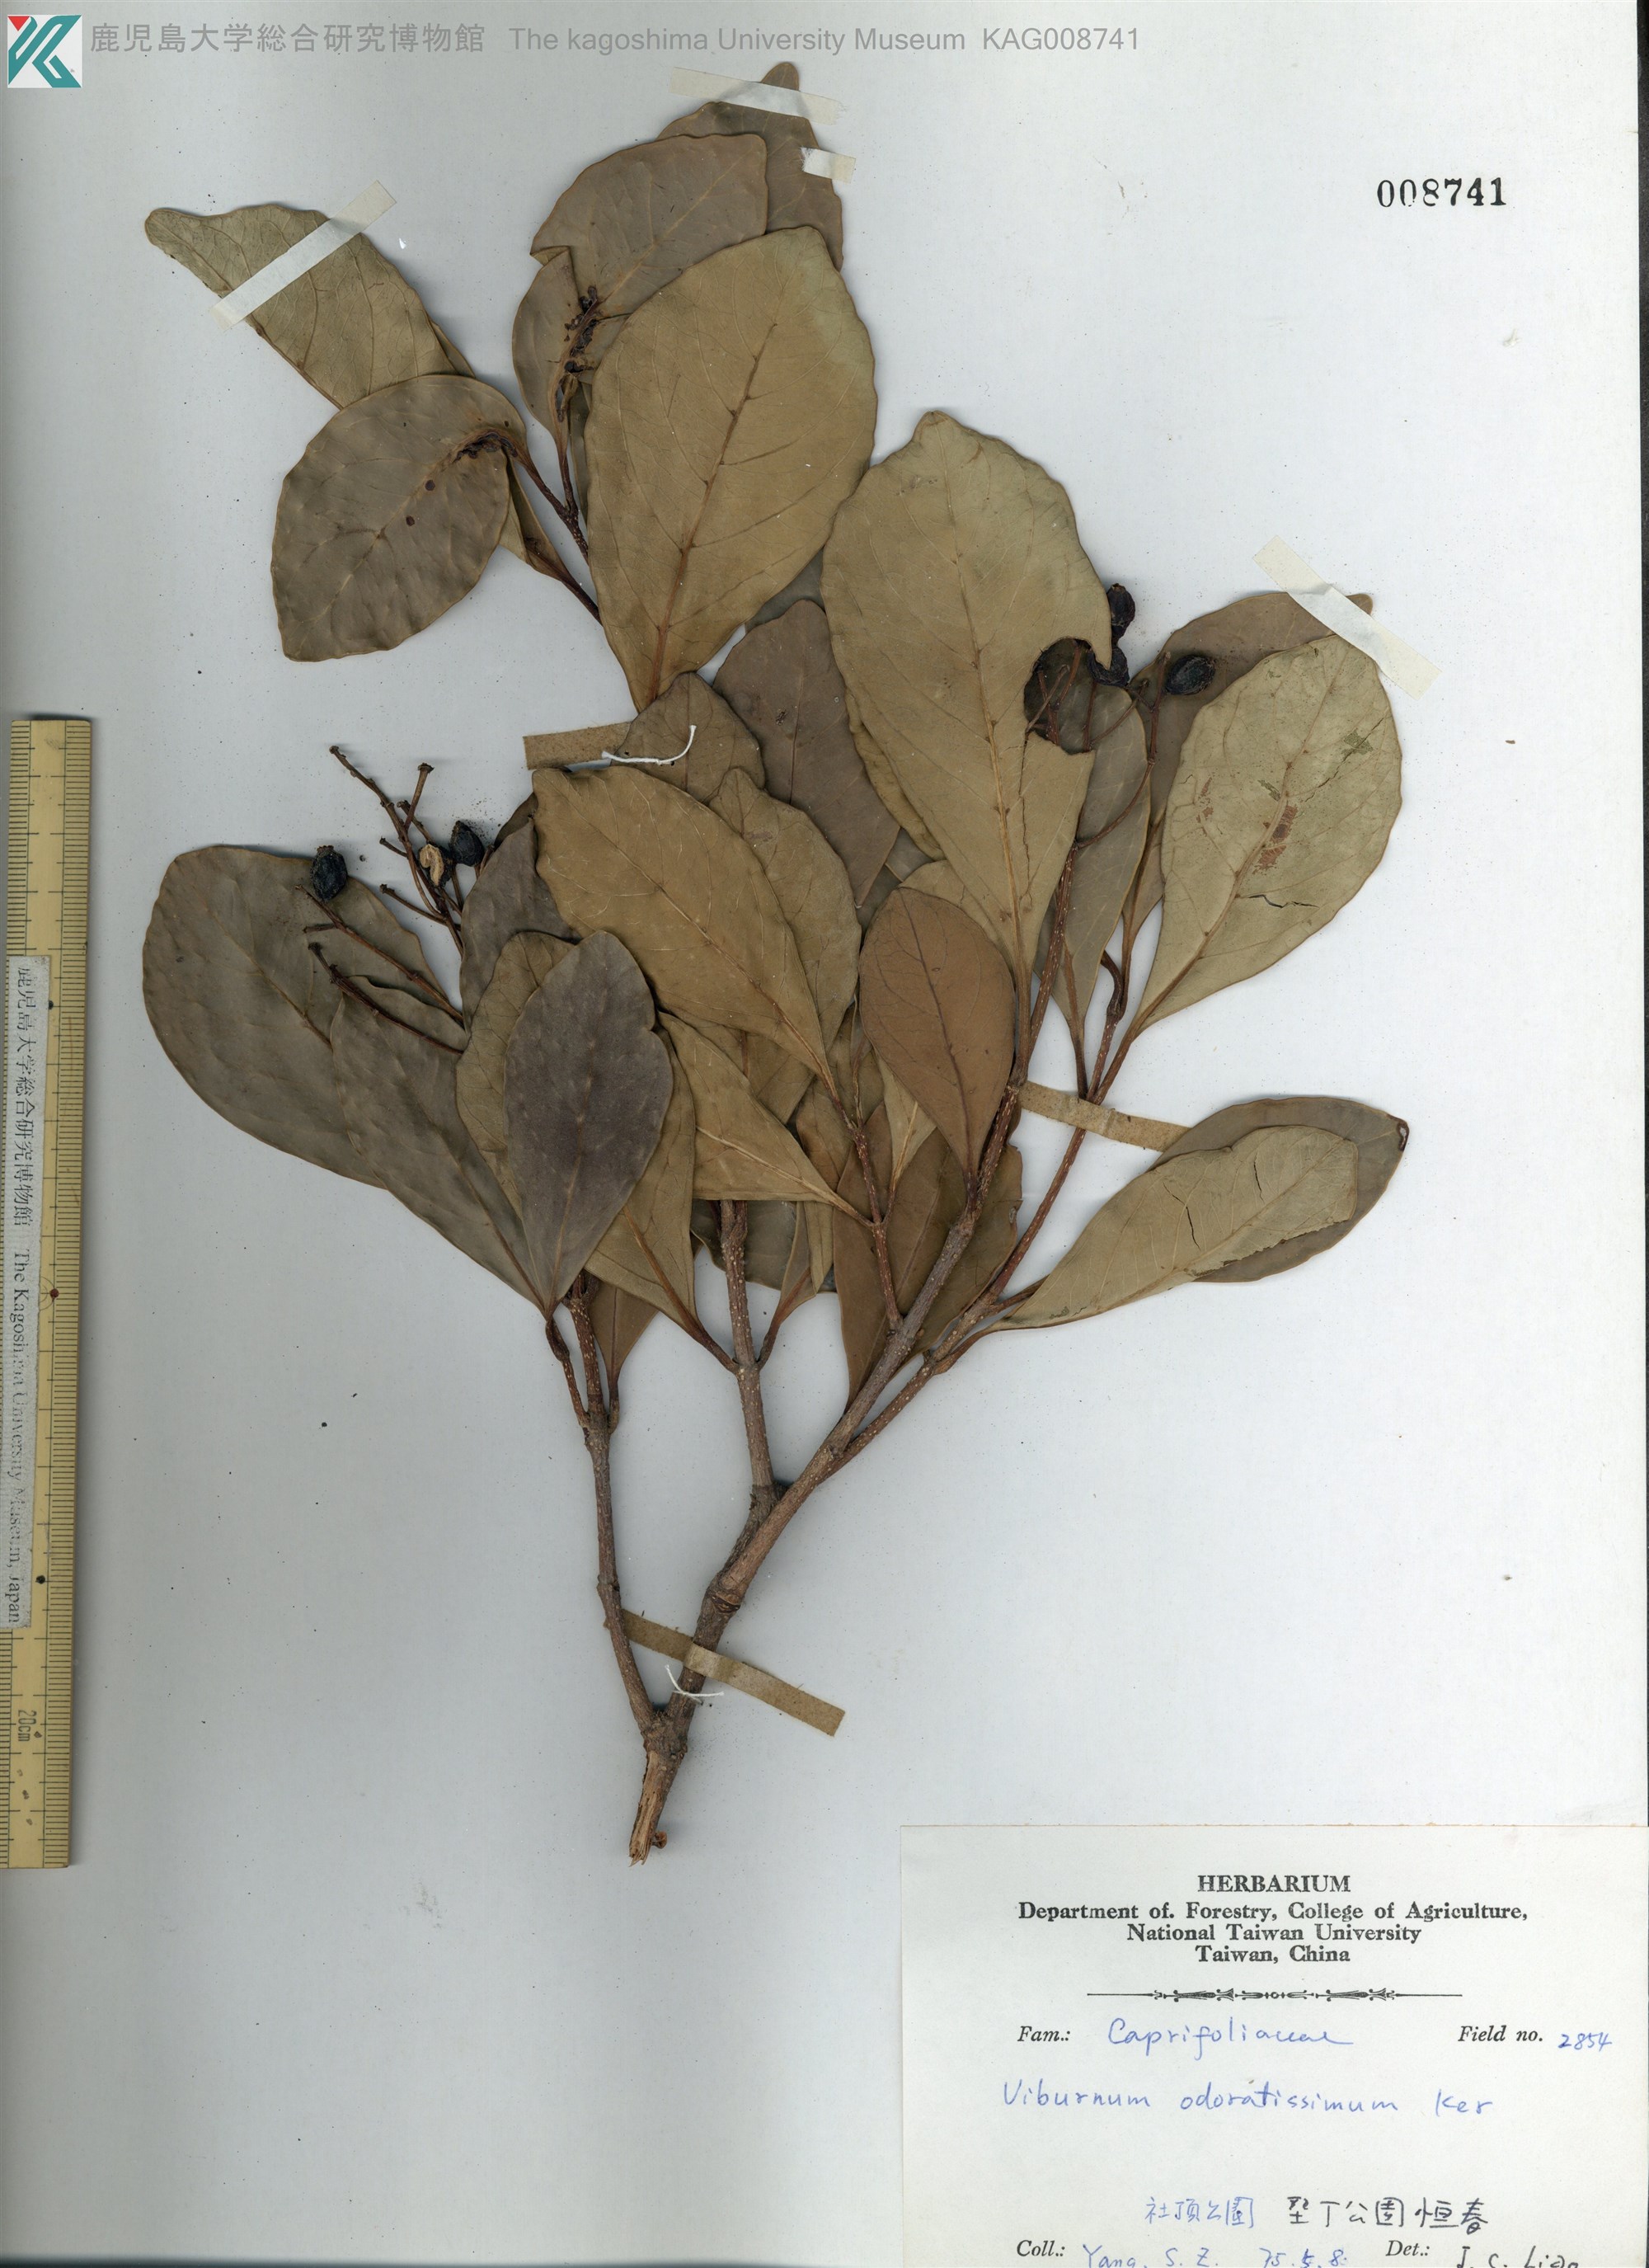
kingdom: Plantae
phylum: Tracheophyta
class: Magnoliopsida
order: Dipsacales
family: Viburnaceae
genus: Viburnum
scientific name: Viburnum odoratissimum
